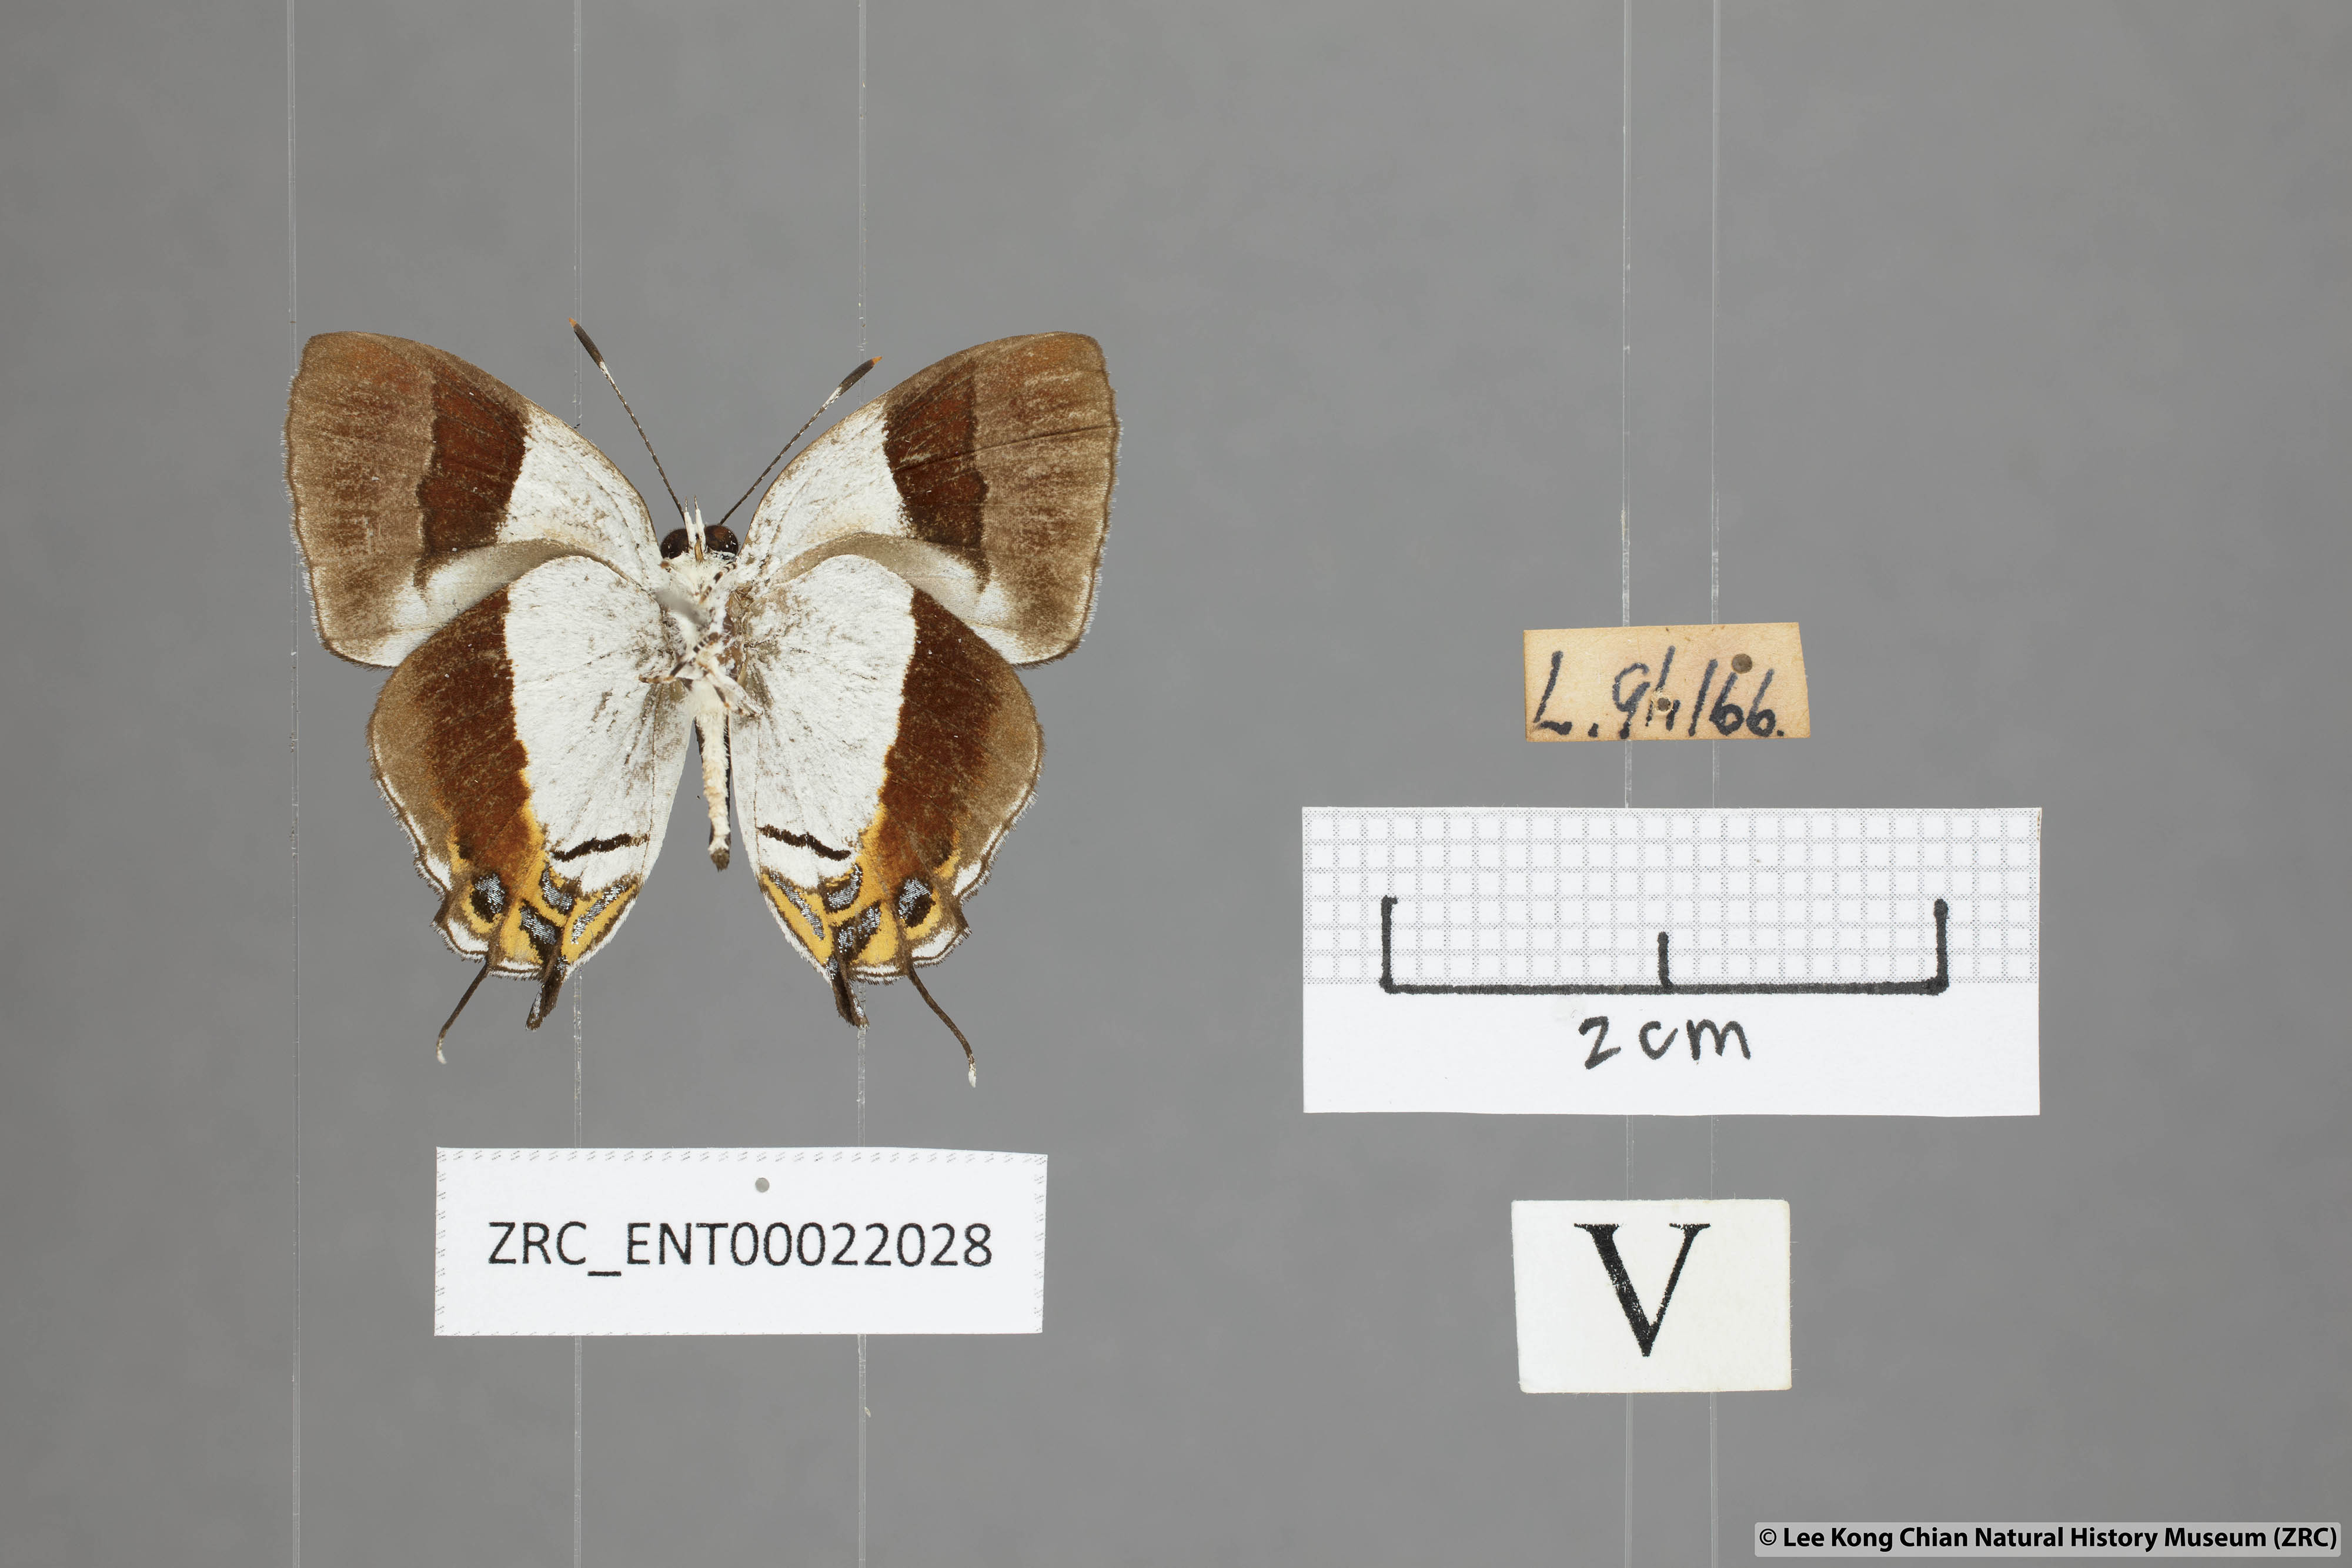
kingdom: Animalia
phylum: Arthropoda
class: Insecta
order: Lepidoptera
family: Lycaenidae
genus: Sithon
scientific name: Sithon nedymond
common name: Plush
